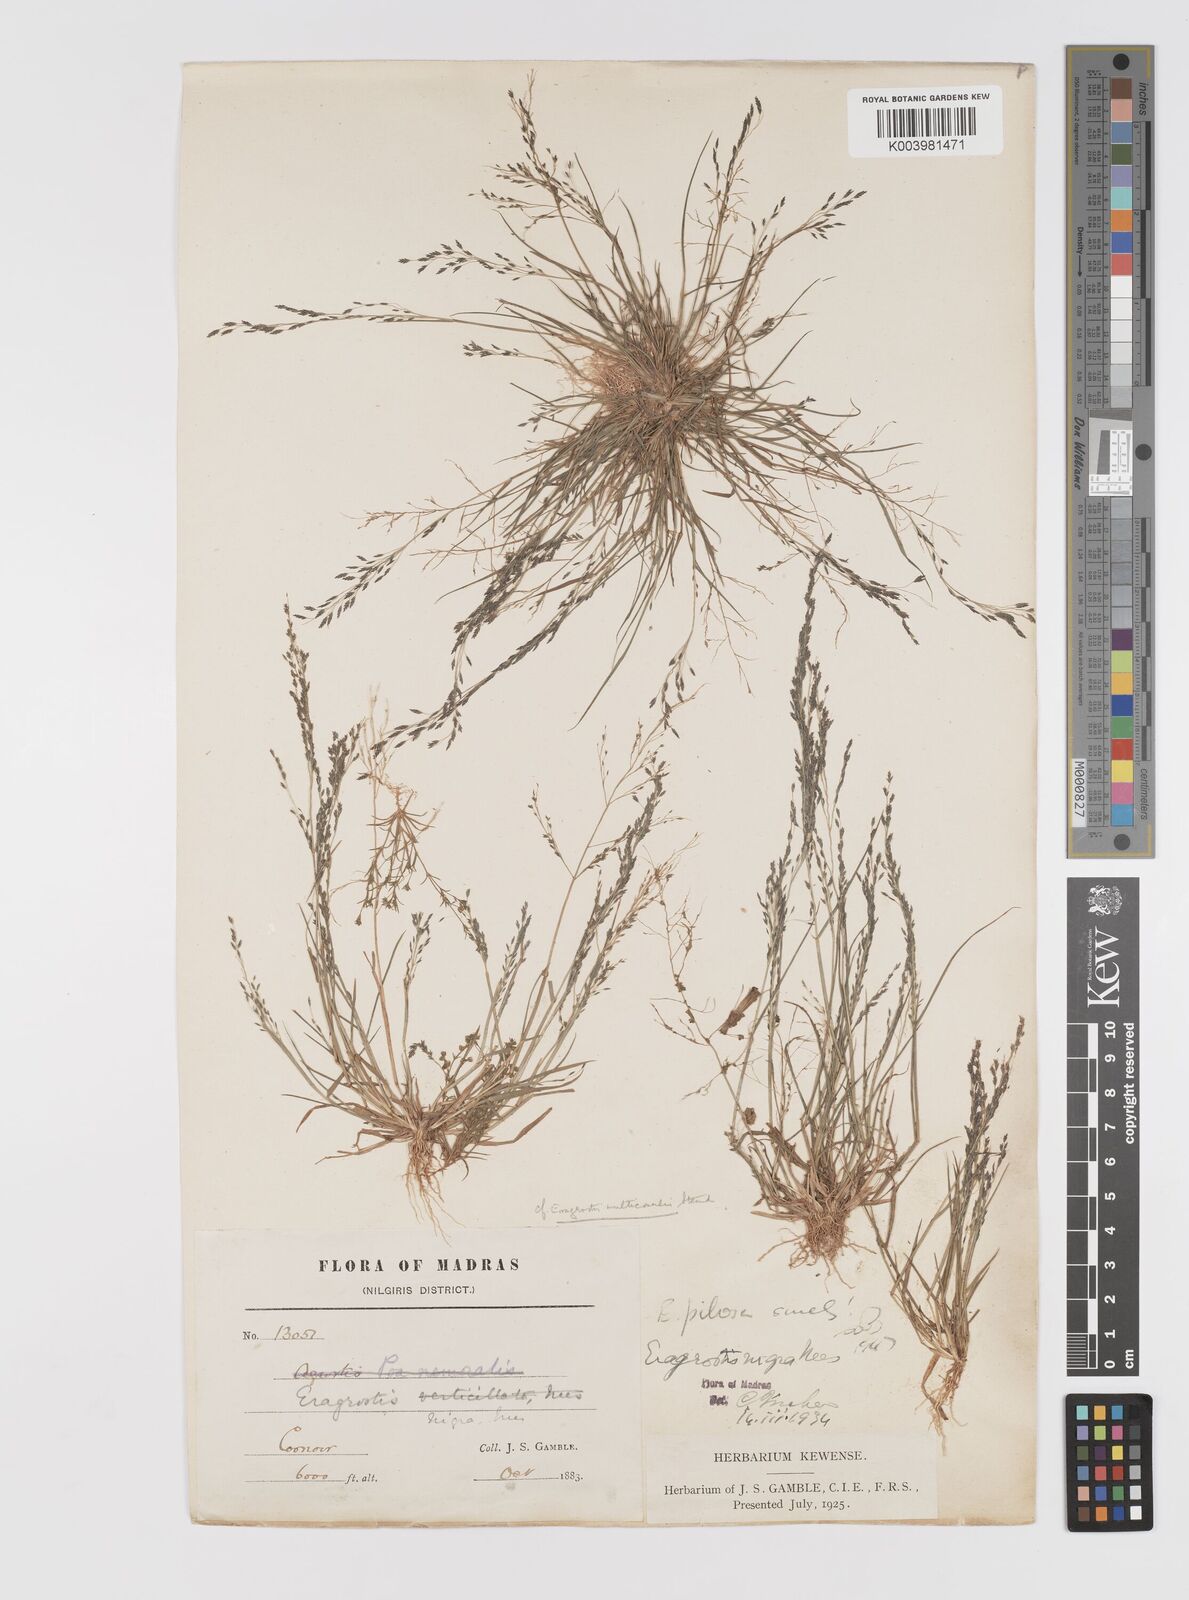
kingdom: Plantae
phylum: Tracheophyta
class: Liliopsida
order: Poales
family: Poaceae
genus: Eragrostis
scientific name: Eragrostis pilosa
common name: Indian lovegrass
